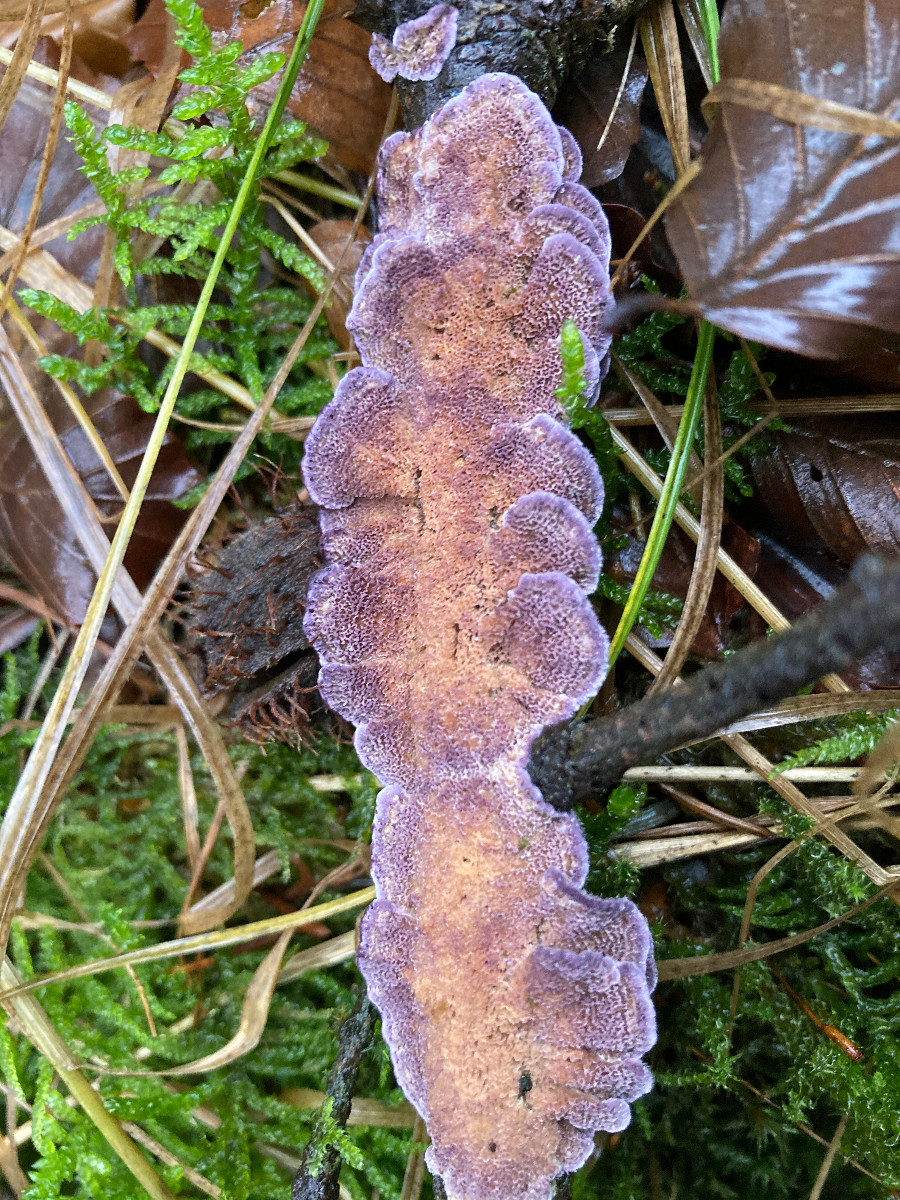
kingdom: Fungi
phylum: Basidiomycota
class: Agaricomycetes
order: Hymenochaetales
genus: Trichaptum
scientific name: Trichaptum abietinum
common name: almindelig violporesvamp
